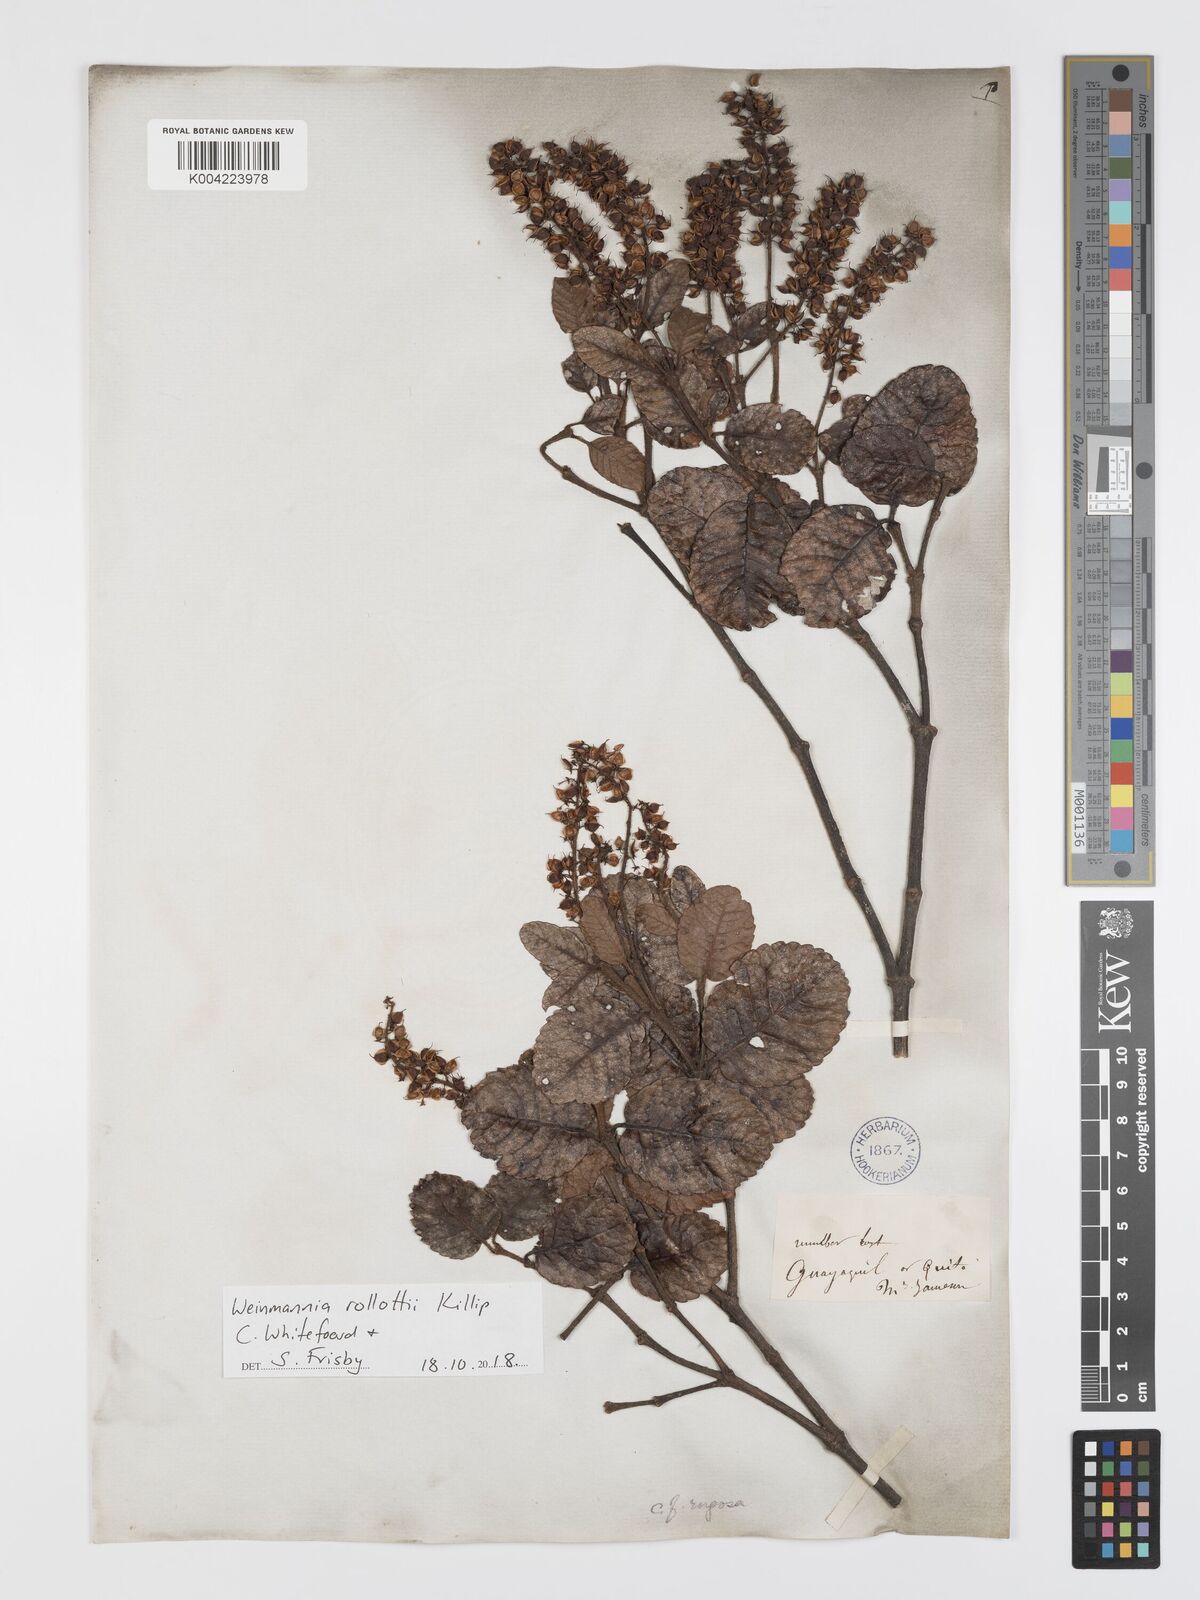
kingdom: Plantae
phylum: Tracheophyta
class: Magnoliopsida
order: Oxalidales
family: Cunoniaceae
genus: Weinmannia
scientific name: Weinmannia rollottii
